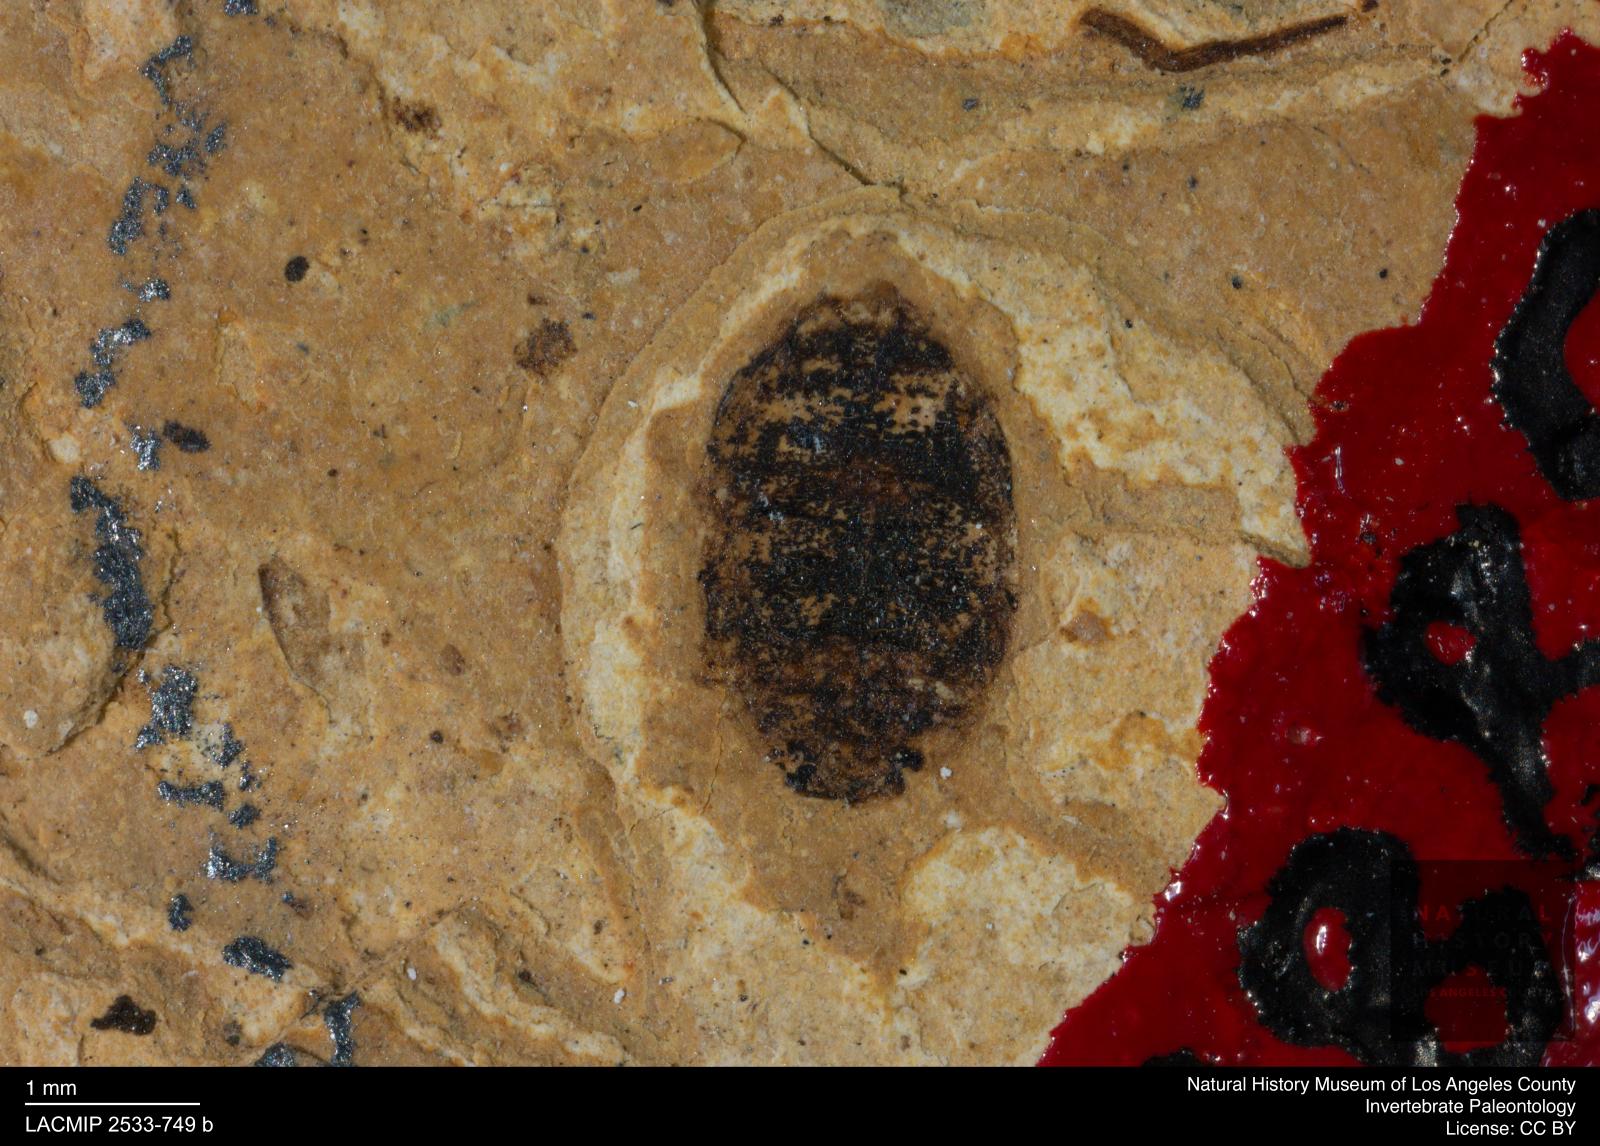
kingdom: Animalia
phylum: Arthropoda
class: Insecta
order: Coleoptera
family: Dytiscidae
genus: Oreodytes
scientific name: Oreodytes cryptolineatus
